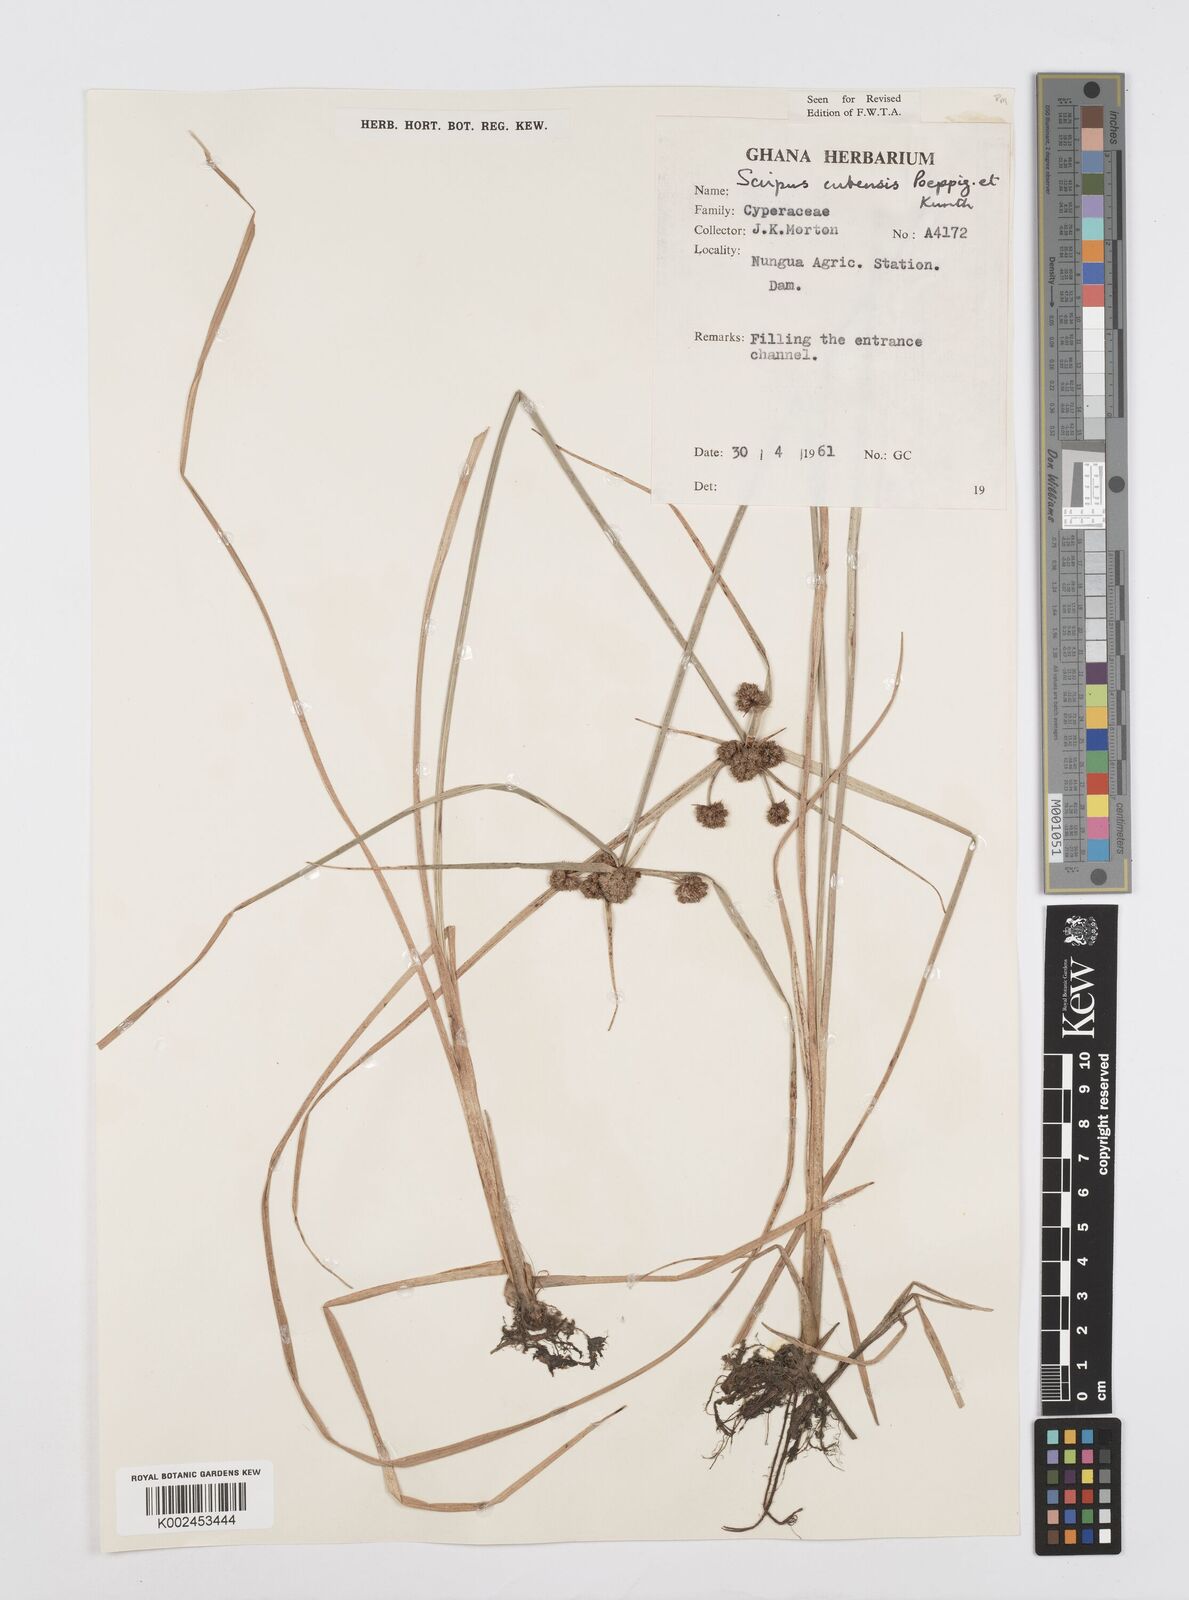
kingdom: Plantae
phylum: Tracheophyta
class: Liliopsida
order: Poales
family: Cyperaceae
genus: Cyperus
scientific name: Cyperus elegans
